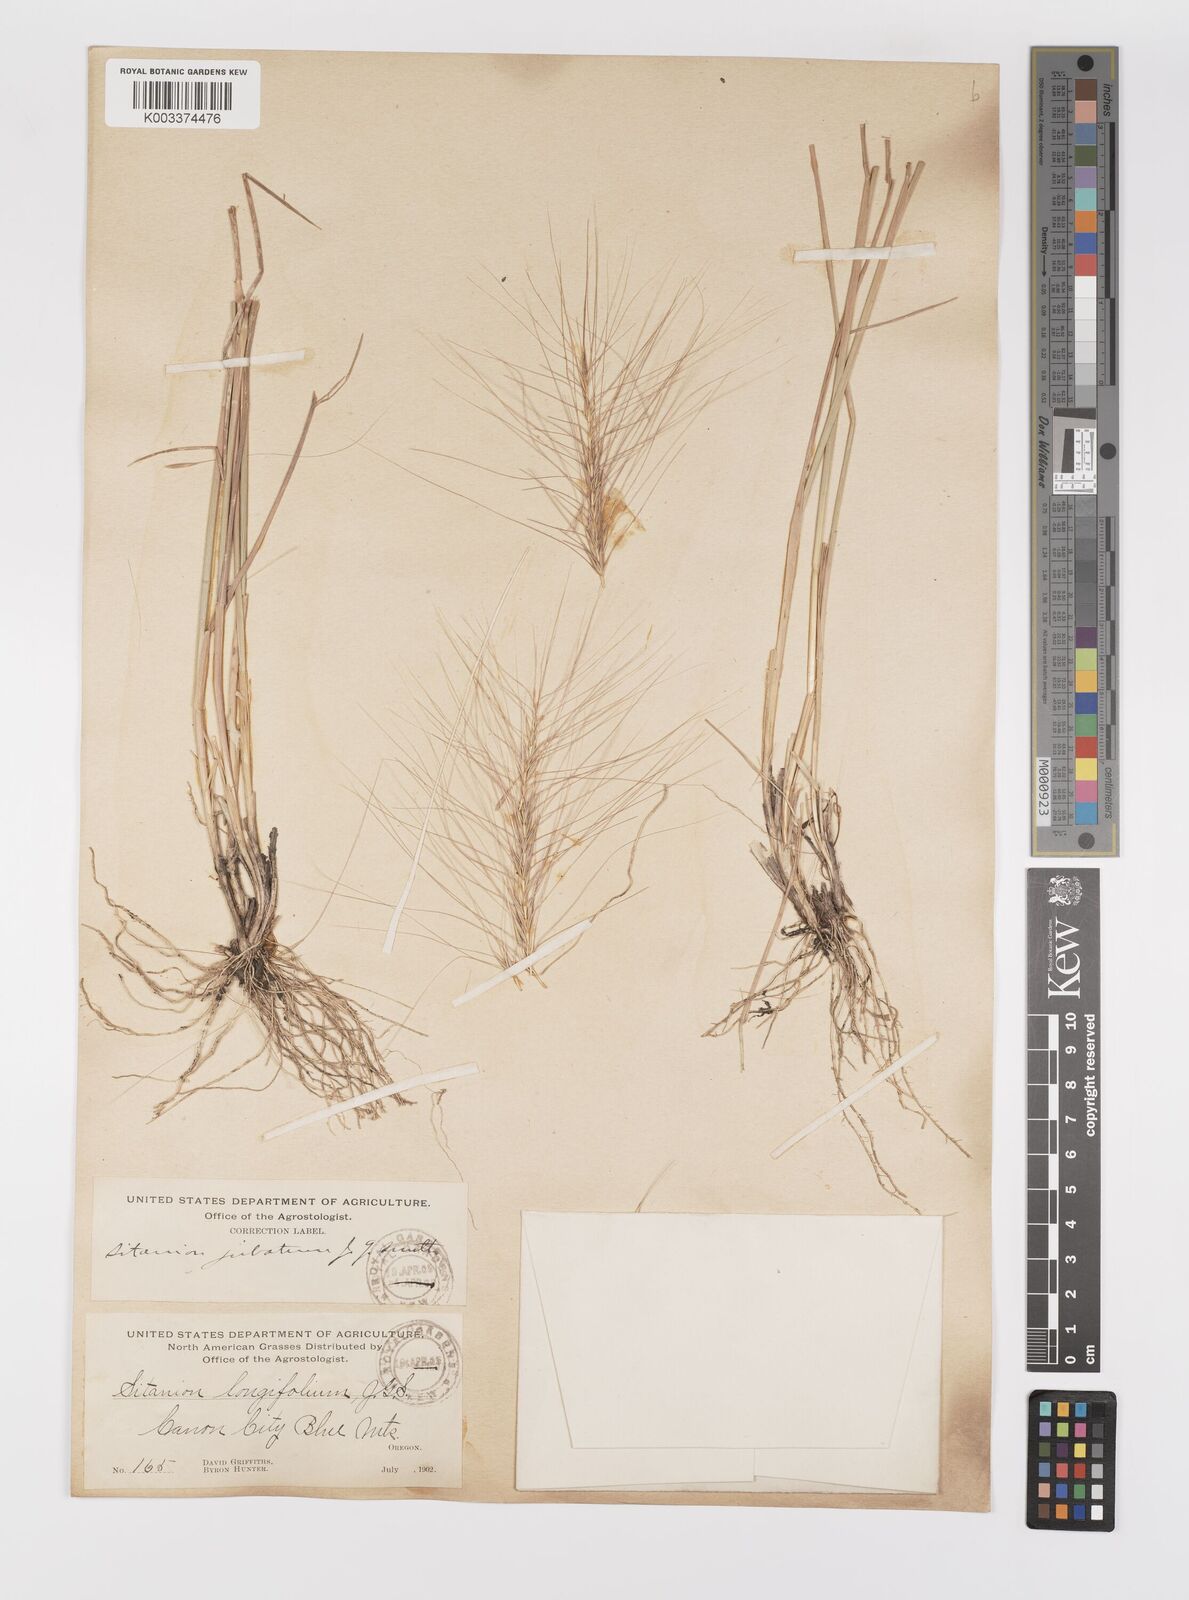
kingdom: Plantae
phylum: Tracheophyta
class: Liliopsida
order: Poales
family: Poaceae
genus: Elymus
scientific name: Elymus multisetus
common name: Big squirreltail
